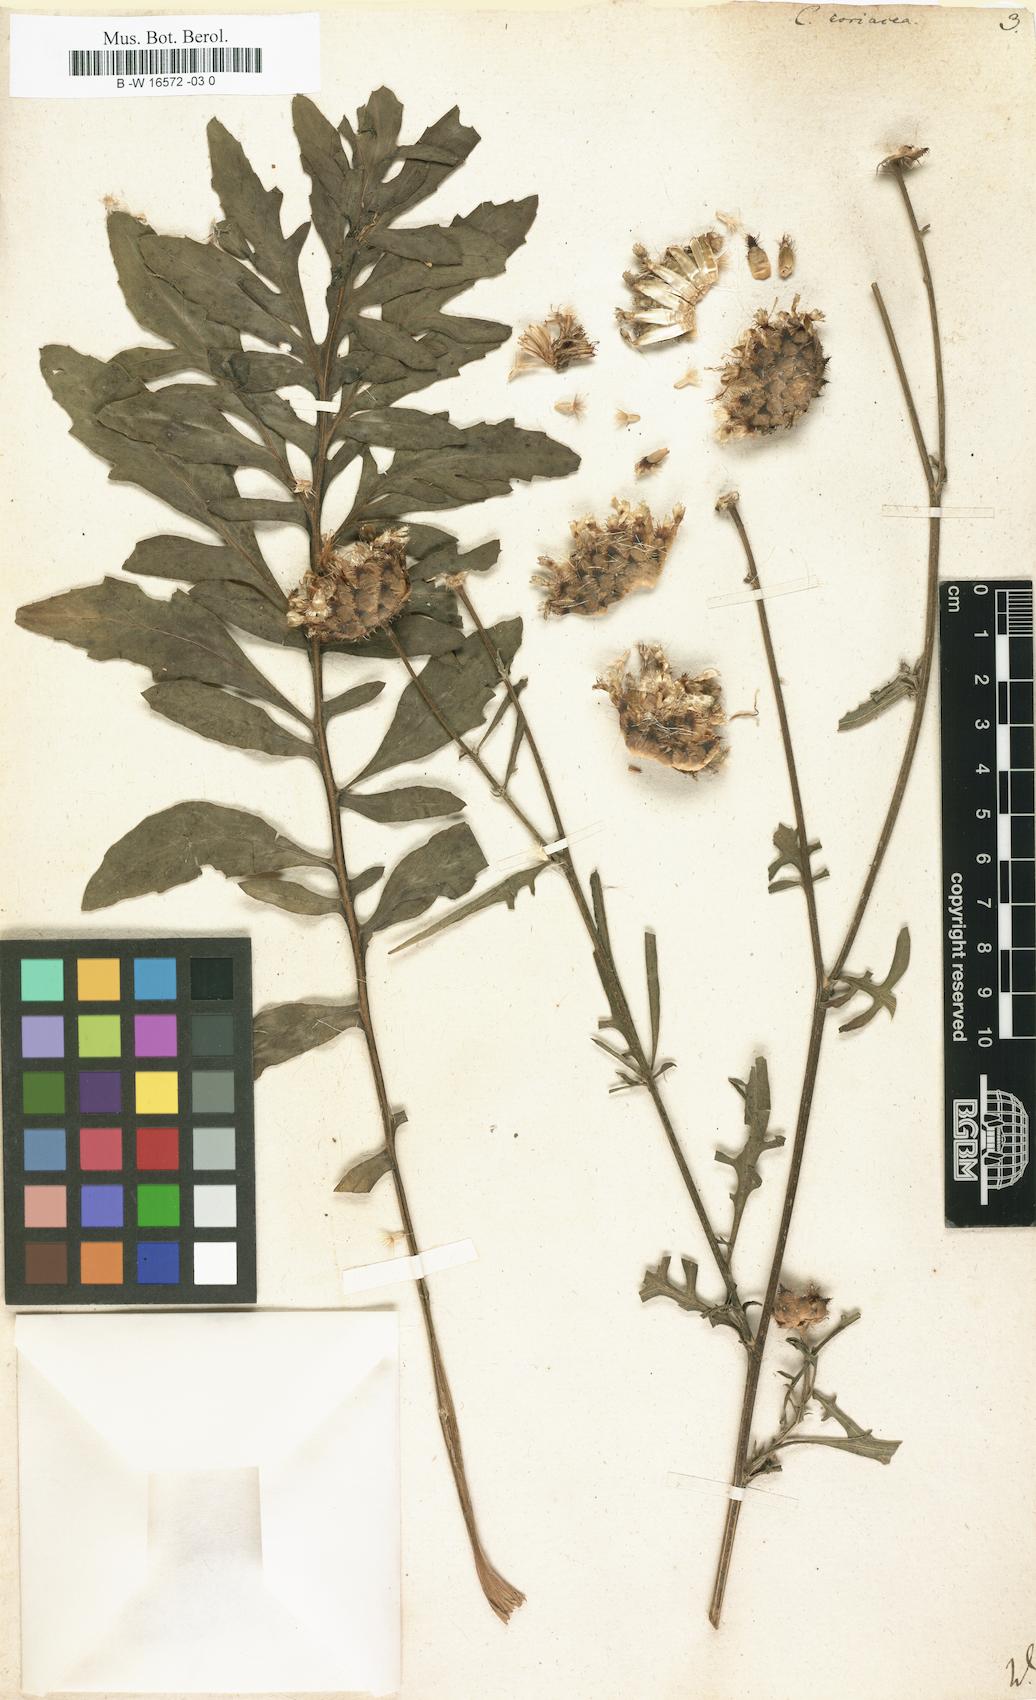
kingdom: Plantae
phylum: Tracheophyta
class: Magnoliopsida
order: Asterales
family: Asteraceae
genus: Centaurea
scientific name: Centaurea scabiosa
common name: Greater knapweed
